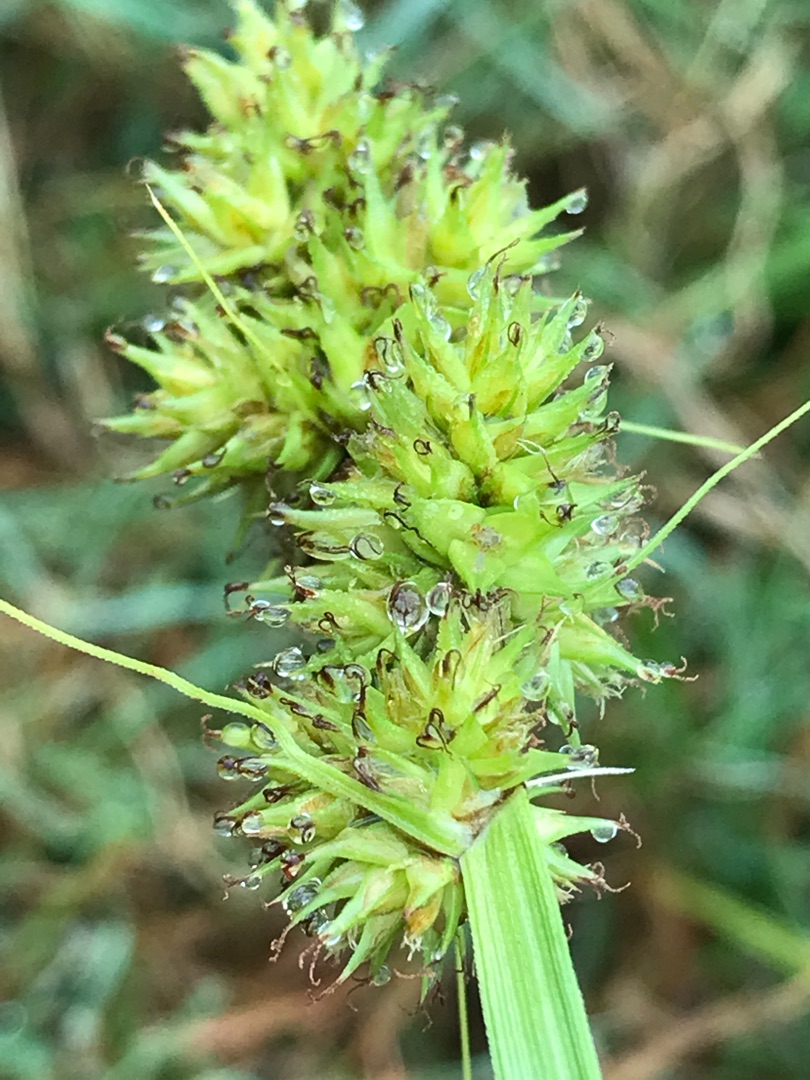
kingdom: Plantae
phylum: Tracheophyta
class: Liliopsida
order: Poales
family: Cyperaceae
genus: Carex
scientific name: Carex otrubae
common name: Sylt-star
